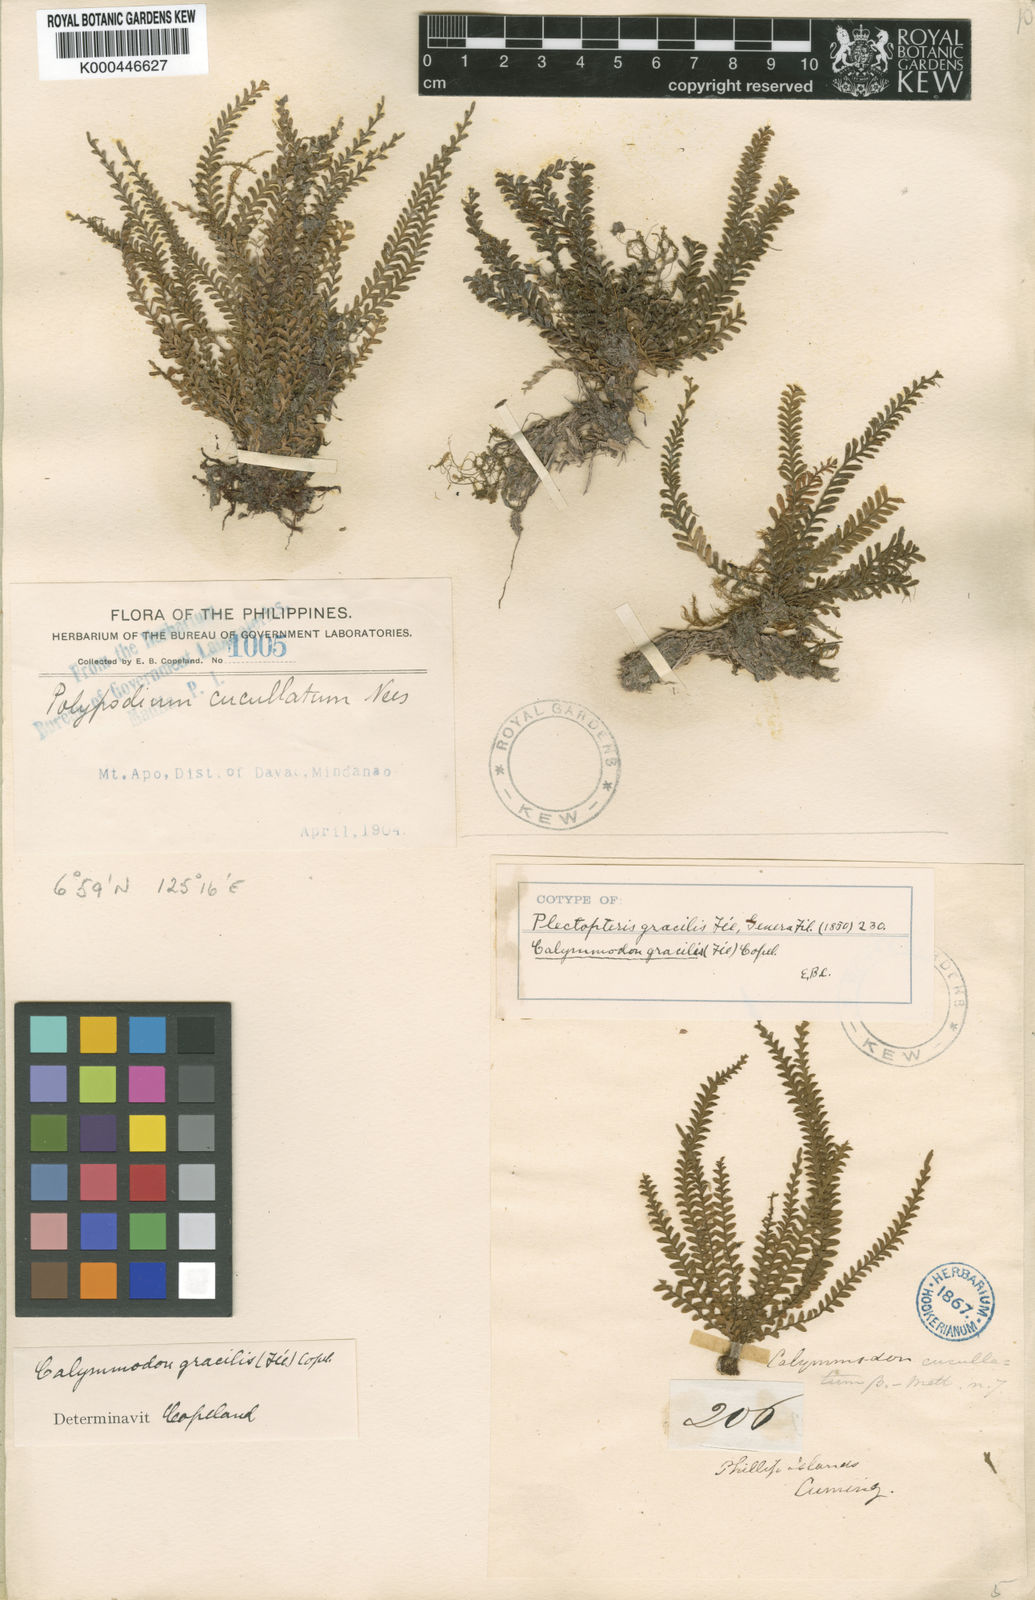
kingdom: Plantae
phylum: Tracheophyta
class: Polypodiopsida
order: Polypodiales
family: Polypodiaceae
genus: Calymmodon
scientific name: Calymmodon gracilis
